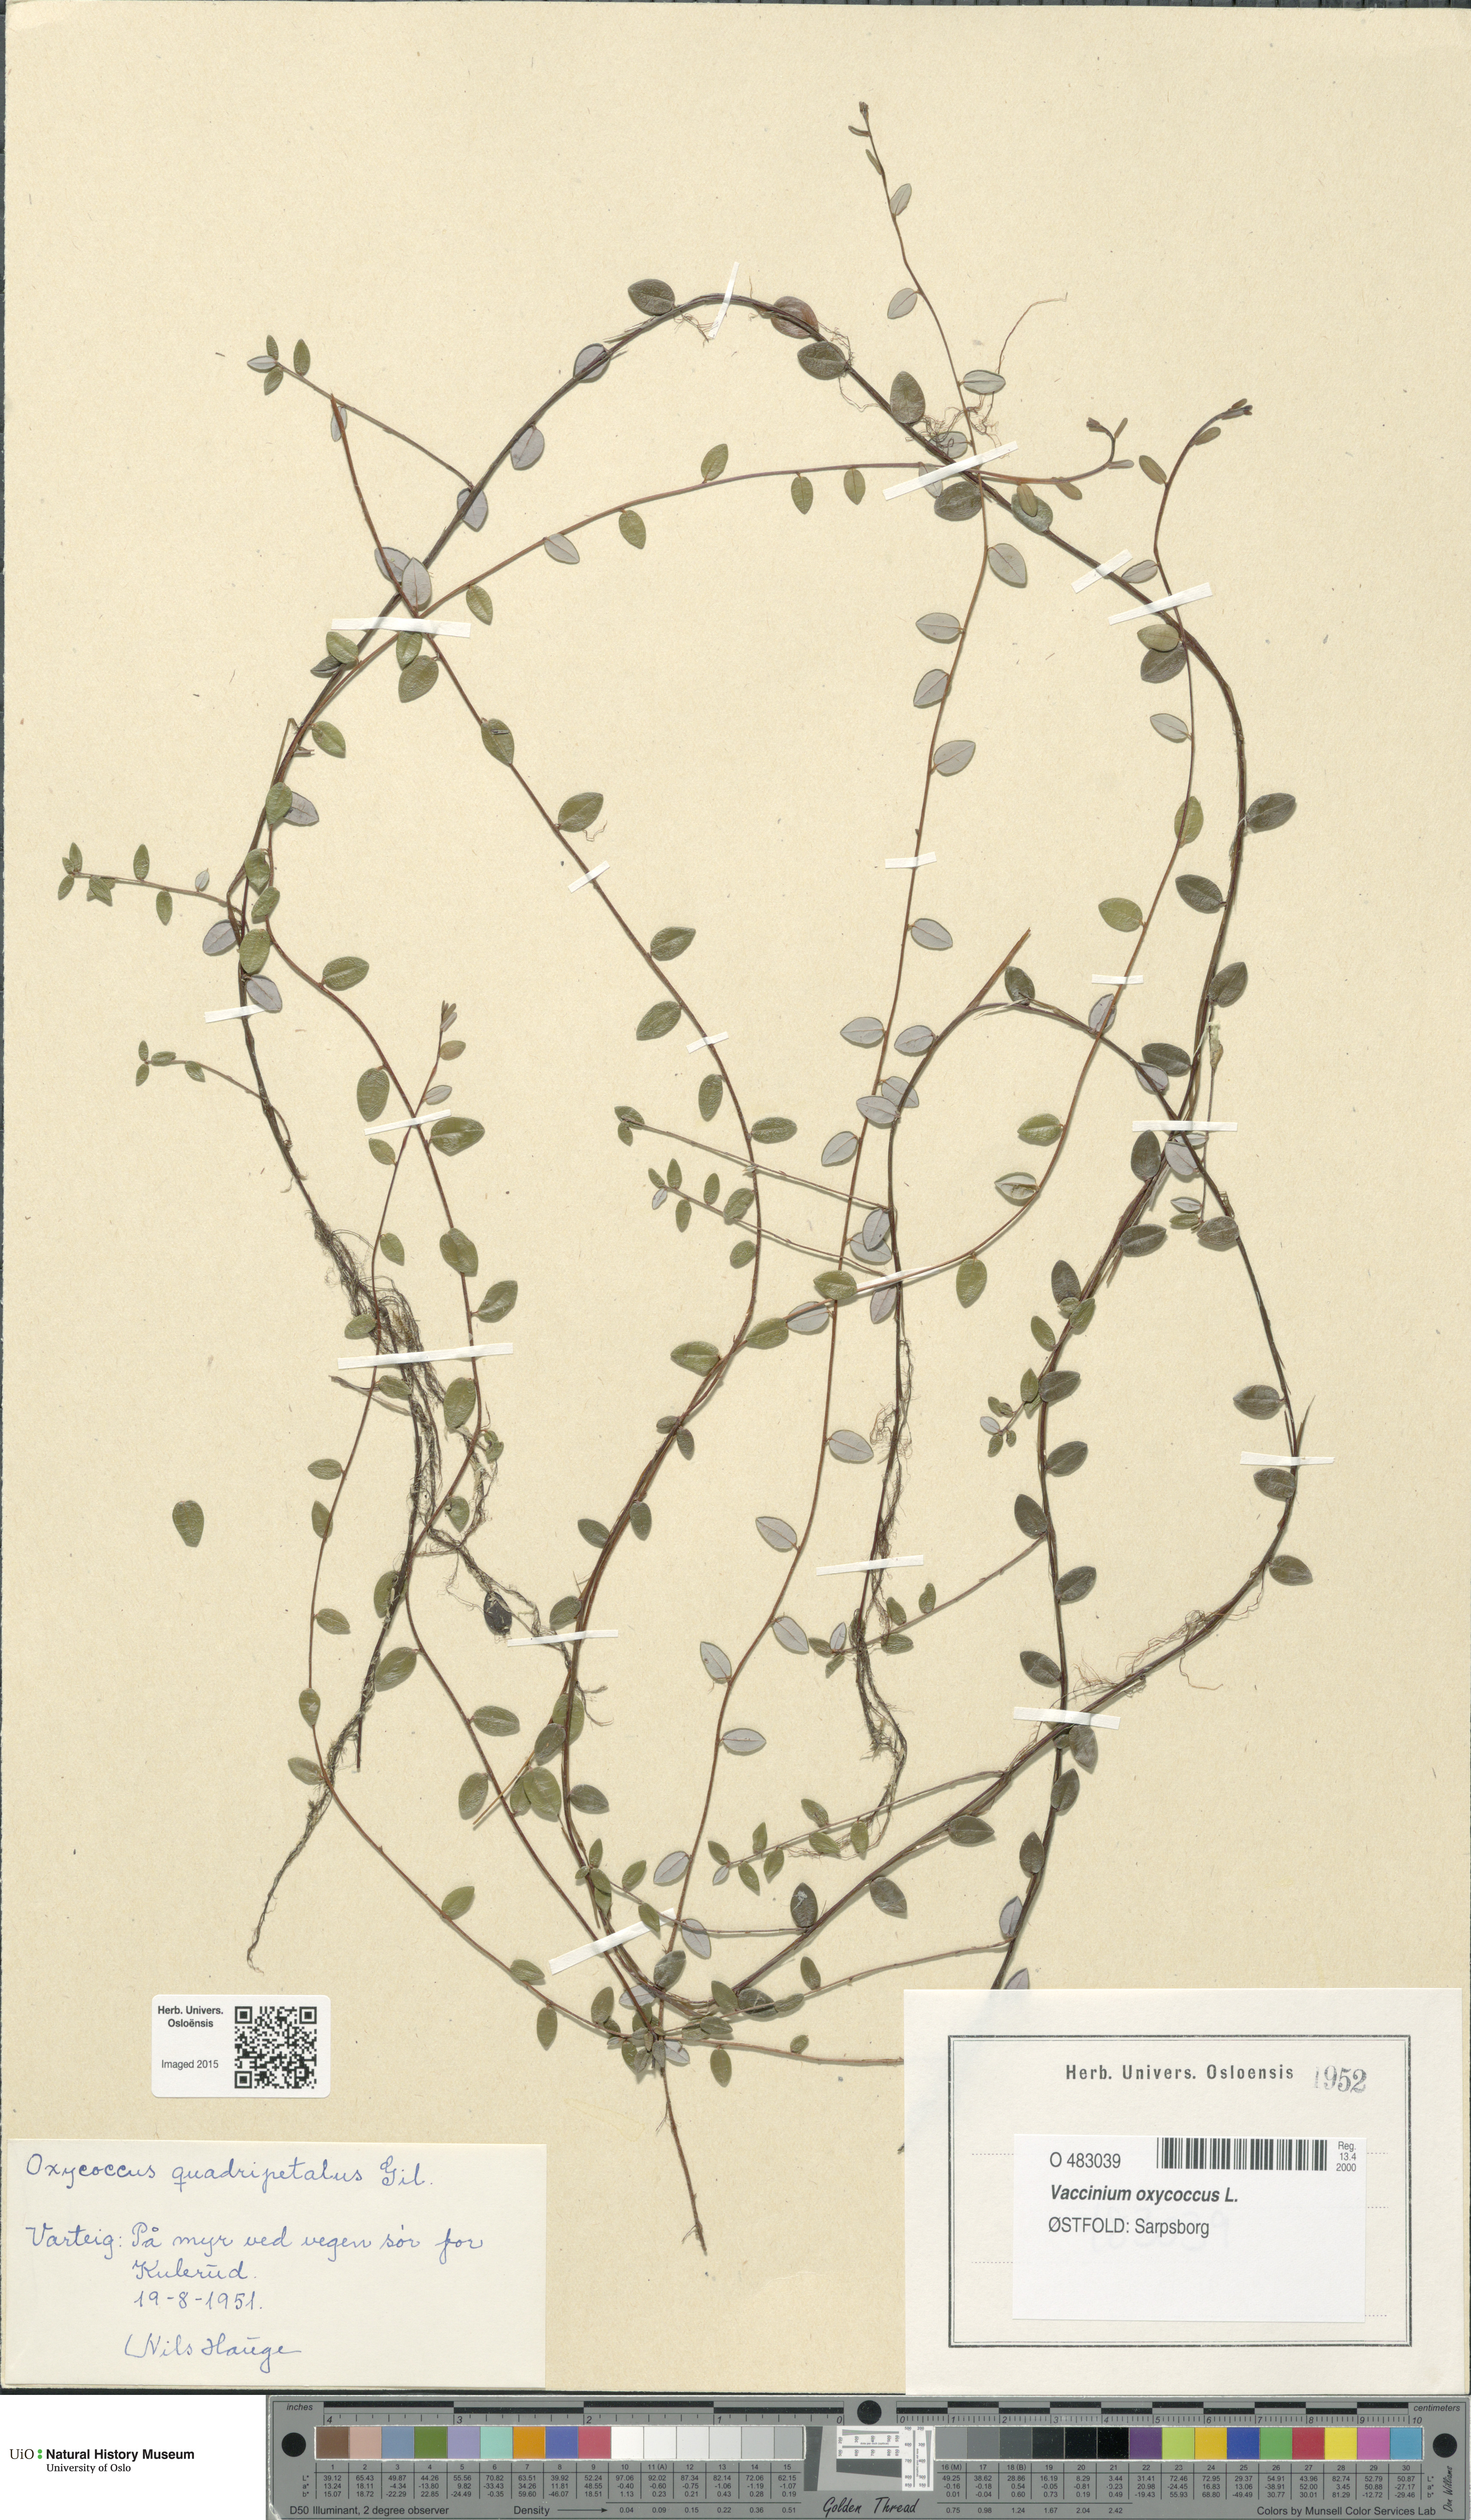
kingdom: Plantae
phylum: Tracheophyta
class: Magnoliopsida
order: Ericales
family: Ericaceae
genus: Vaccinium
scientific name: Vaccinium oxycoccos
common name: Cranberry
